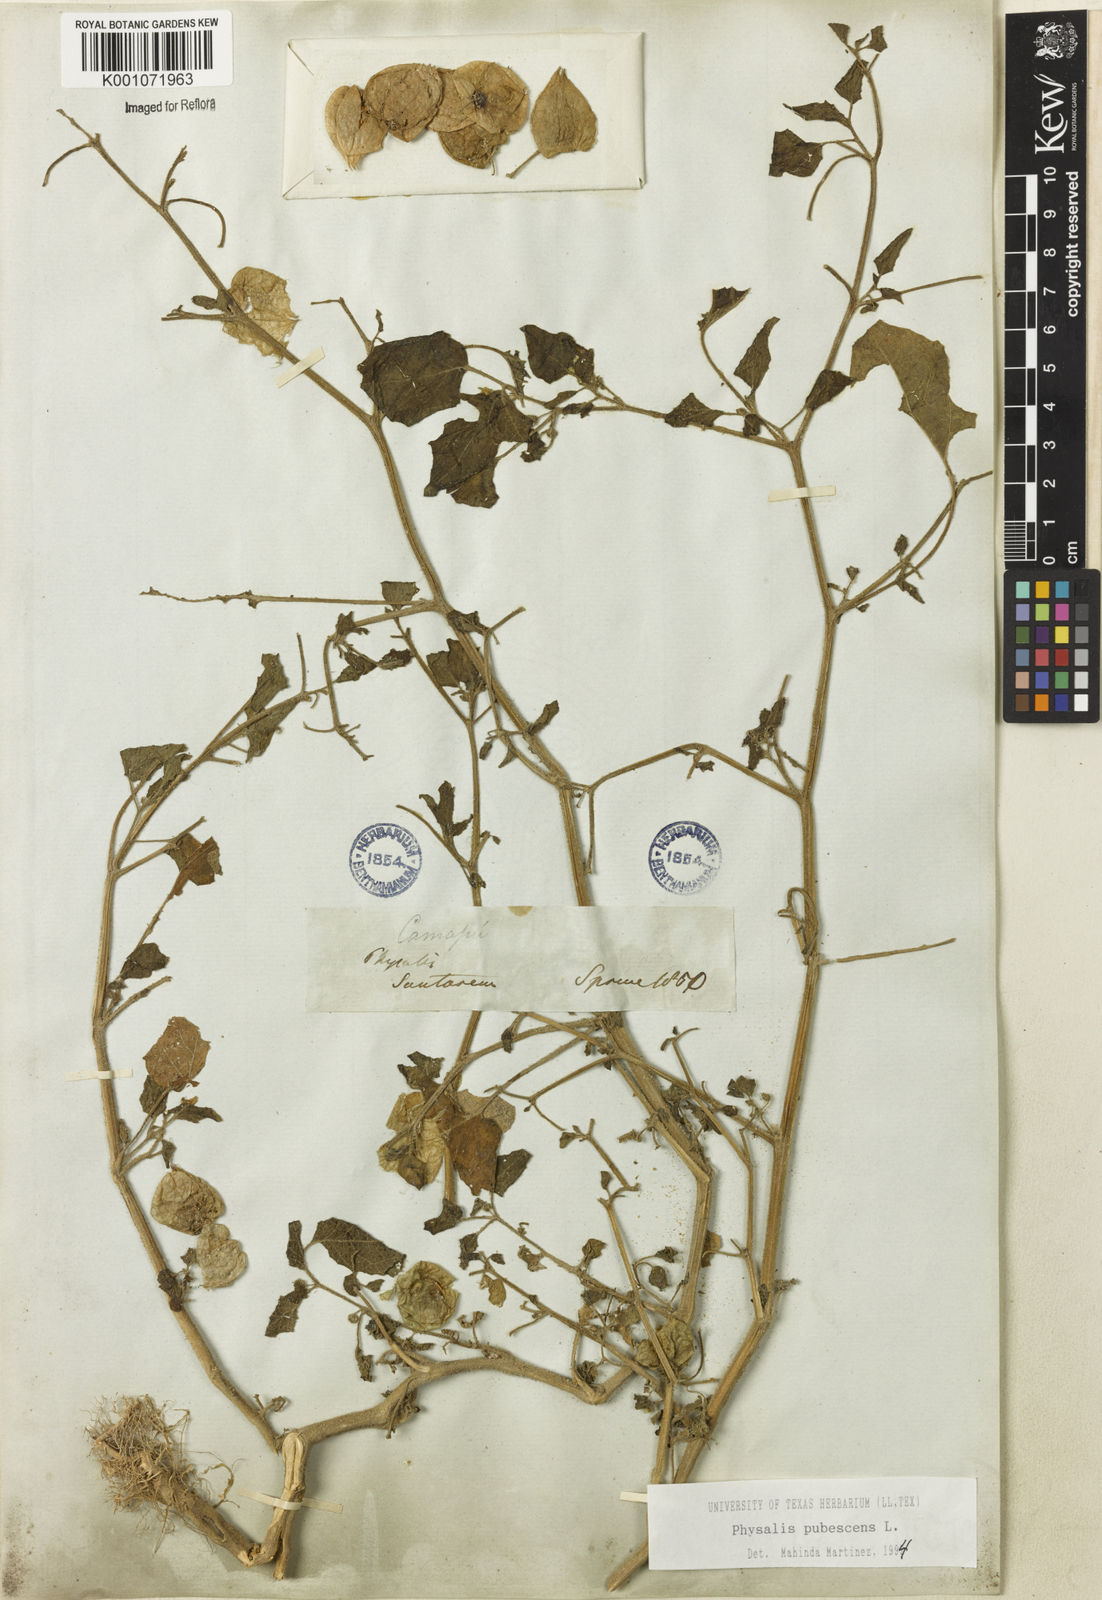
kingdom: Plantae
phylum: Tracheophyta
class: Magnoliopsida
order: Solanales
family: Solanaceae
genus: Physalis
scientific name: Physalis pubescens
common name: Downy ground-cherry
